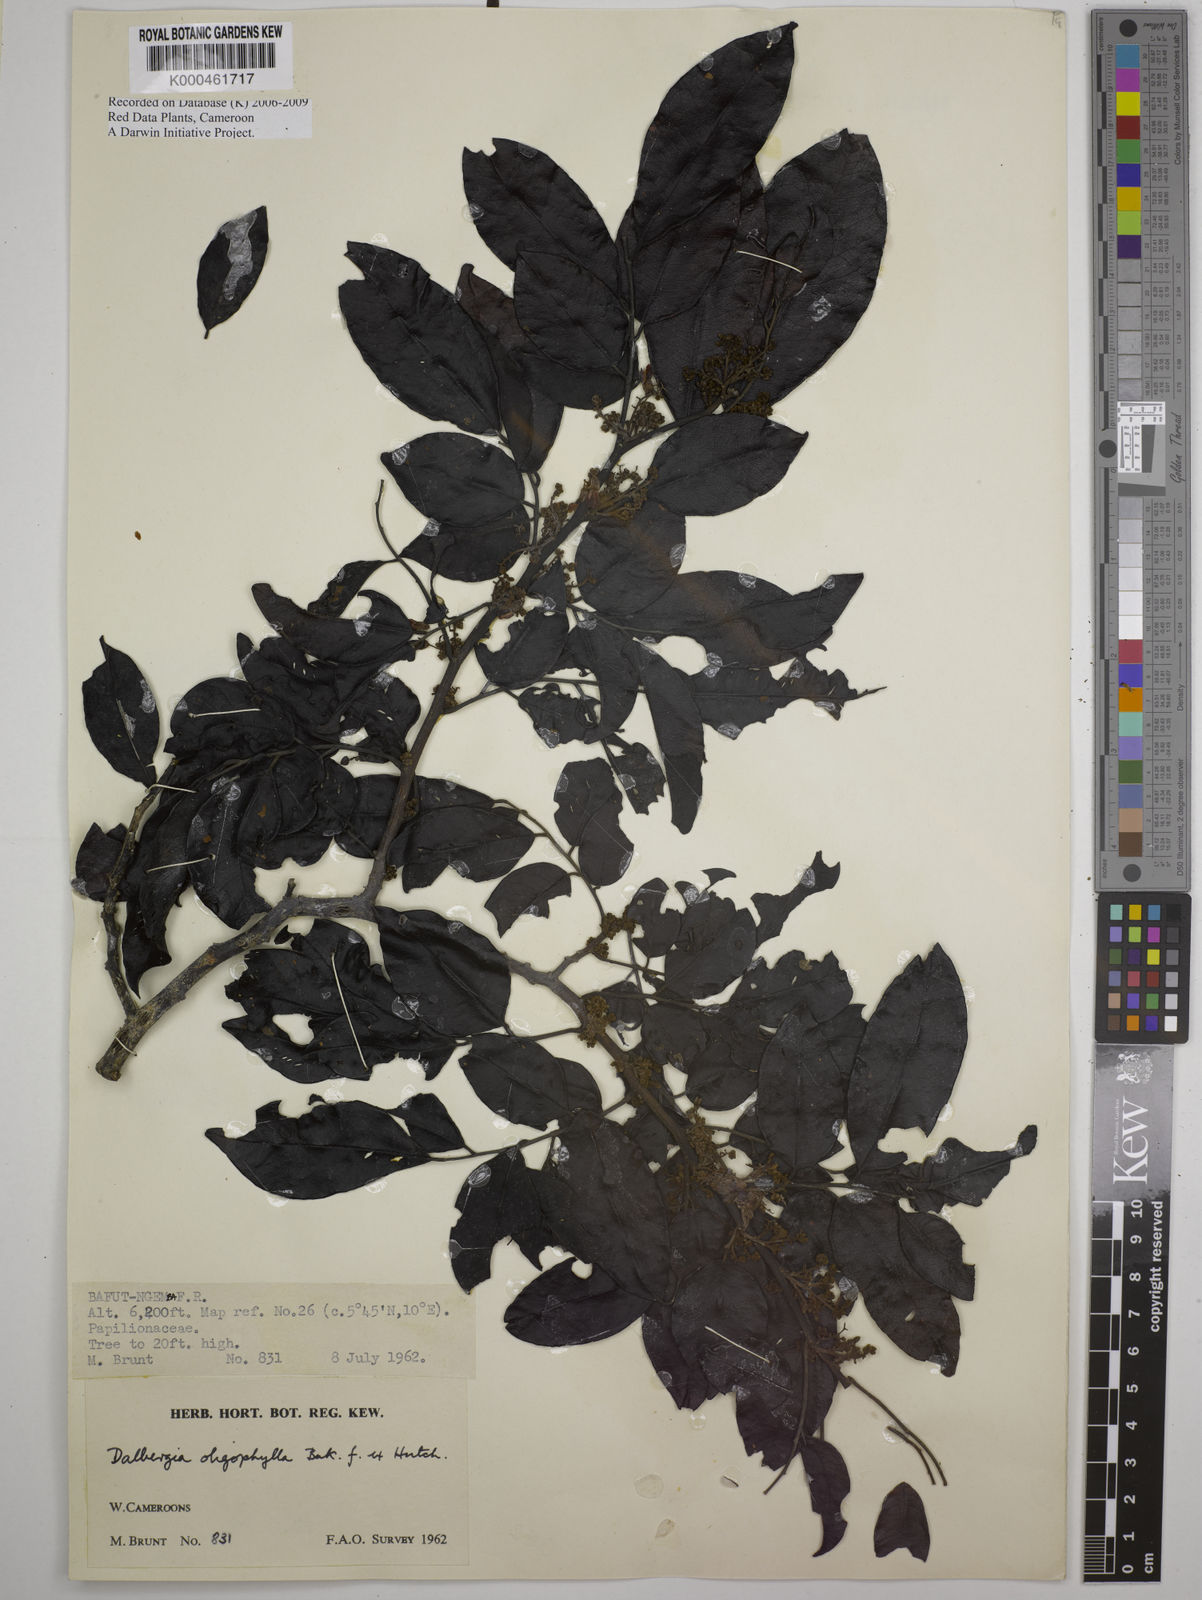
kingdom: Plantae
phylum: Tracheophyta
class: Magnoliopsida
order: Fabales
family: Fabaceae
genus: Dalbergia
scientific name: Dalbergia oligophylla
